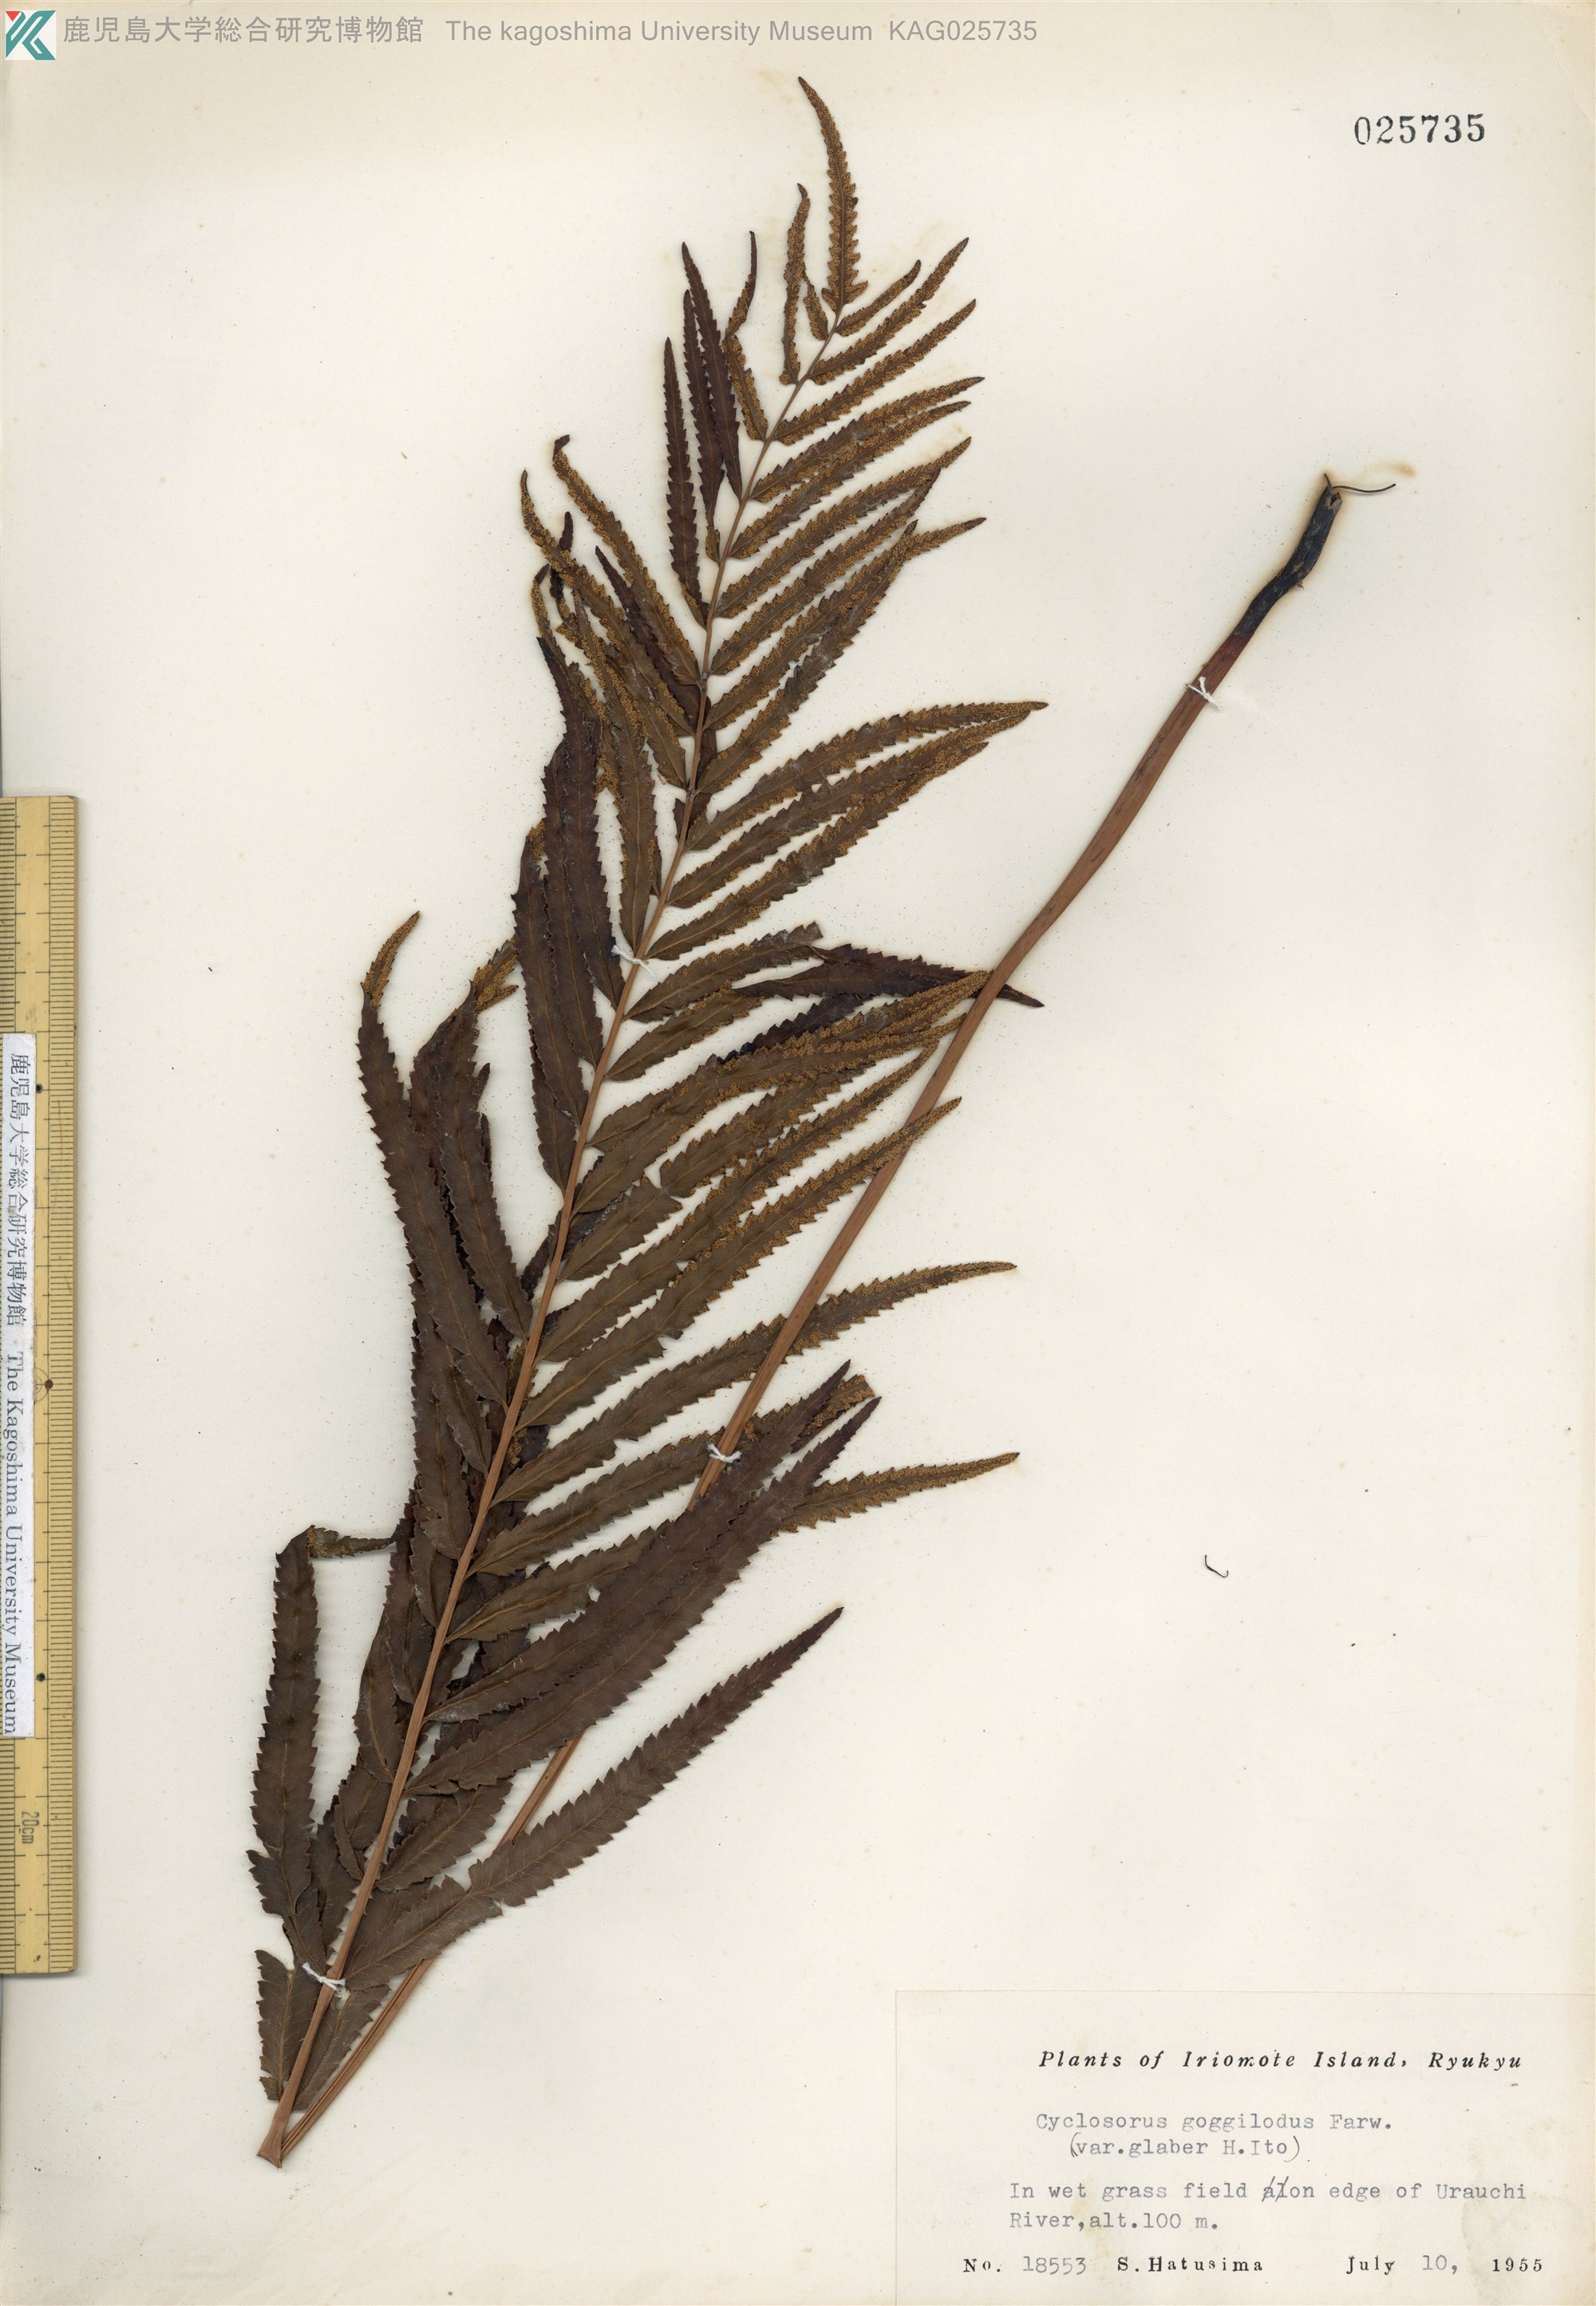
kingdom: Plantae
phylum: Tracheophyta
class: Polypodiopsida
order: Polypodiales
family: Thelypteridaceae
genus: Cyclosorus
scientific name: Cyclosorus interruptus
